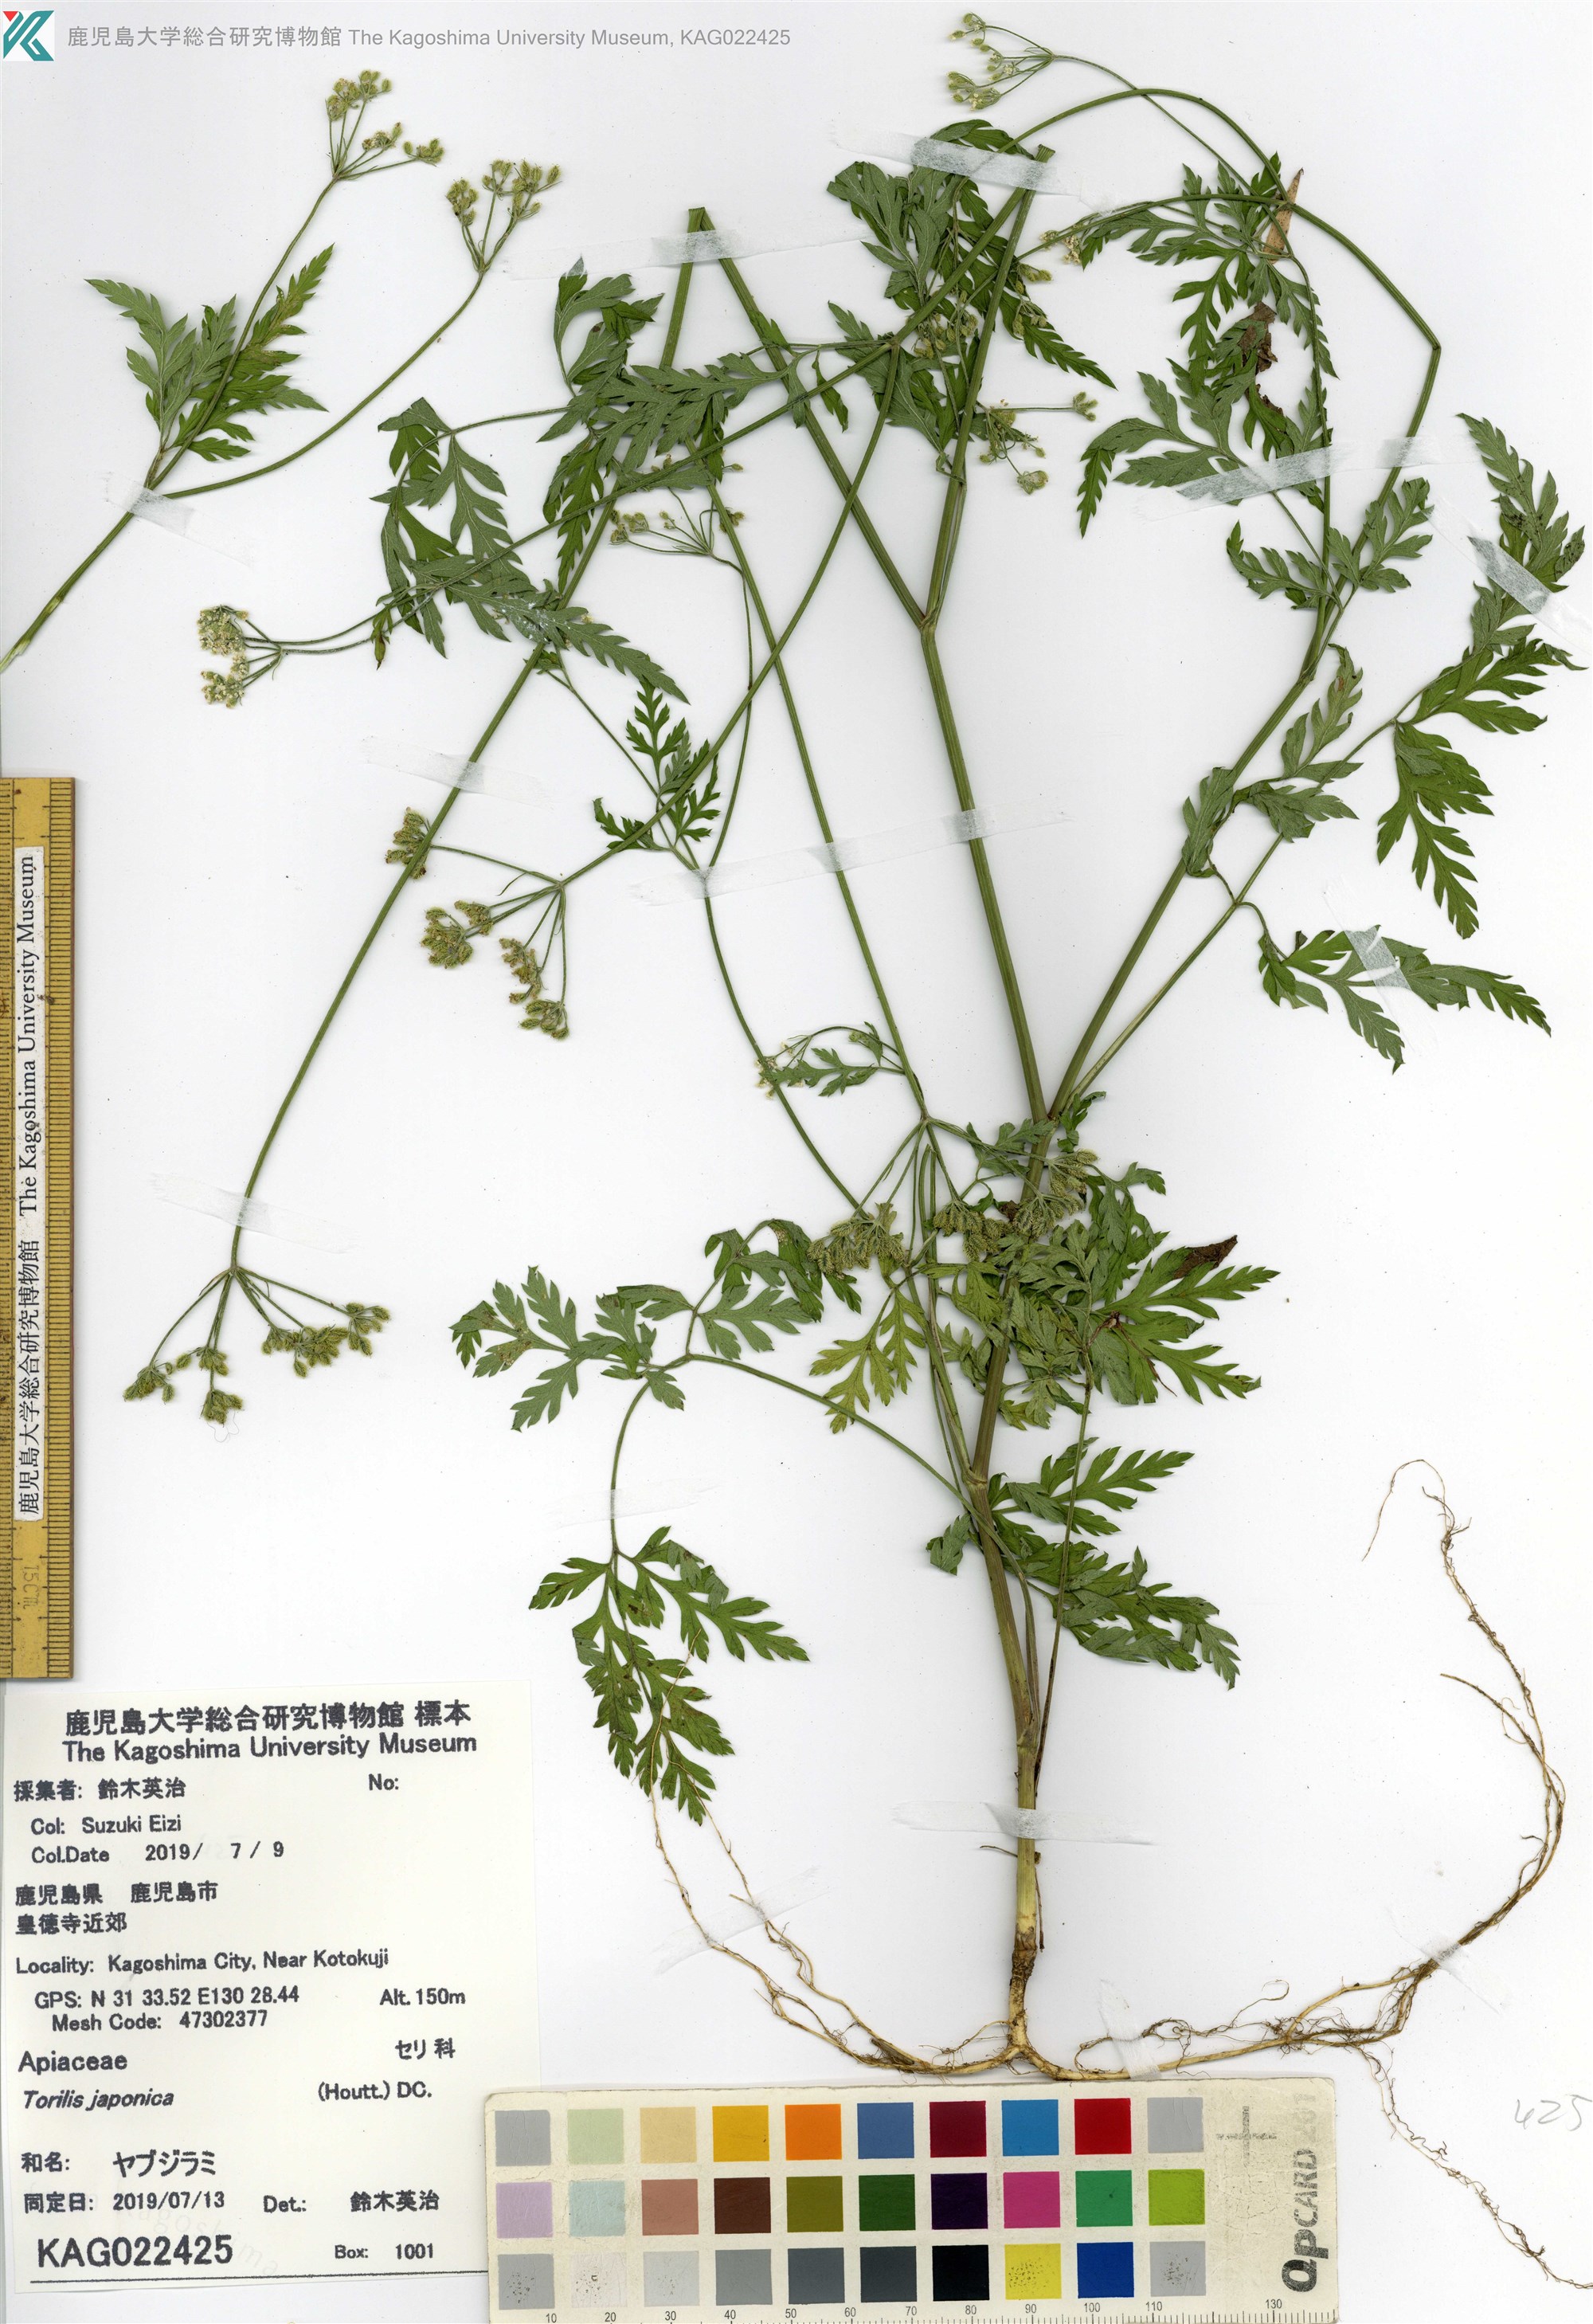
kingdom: Plantae
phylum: Tracheophyta
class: Magnoliopsida
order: Apiales
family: Apiaceae
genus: Torilis
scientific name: Torilis japonica
